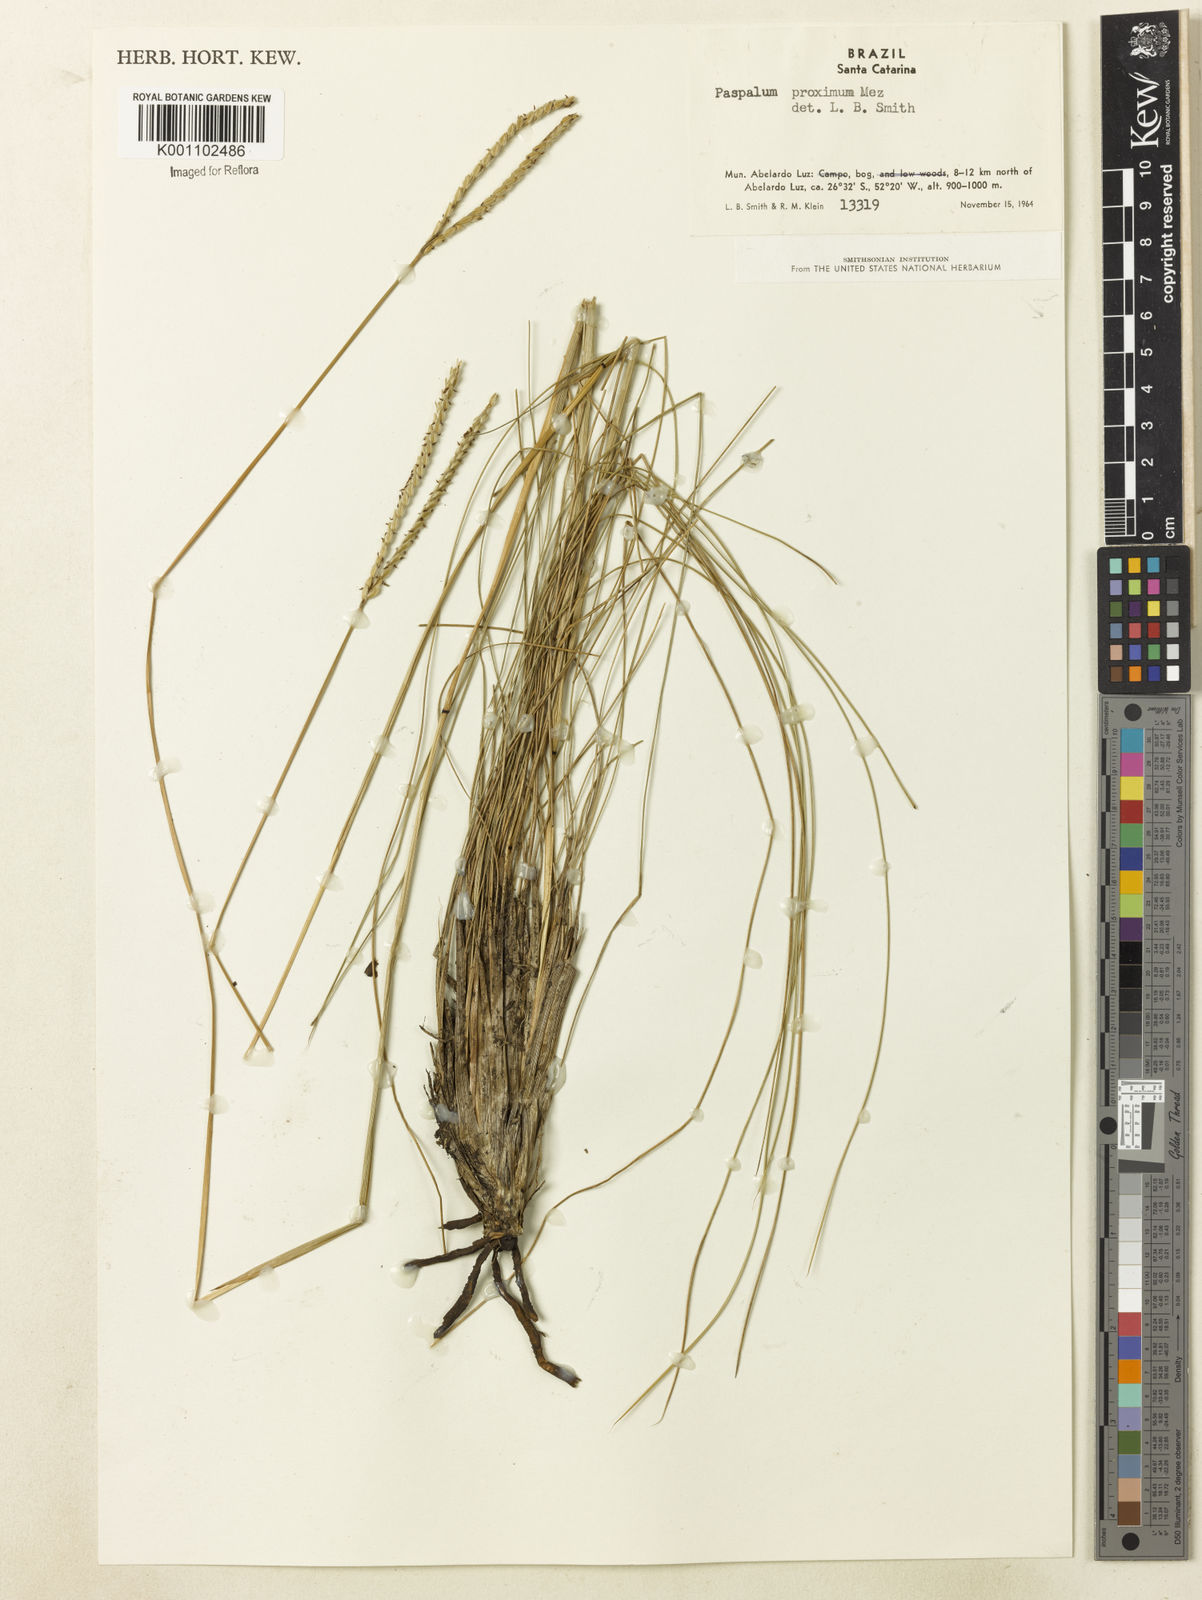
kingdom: Plantae
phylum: Tracheophyta
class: Liliopsida
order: Poales
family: Poaceae
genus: Paspalum
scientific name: Paspalum ellipticum
